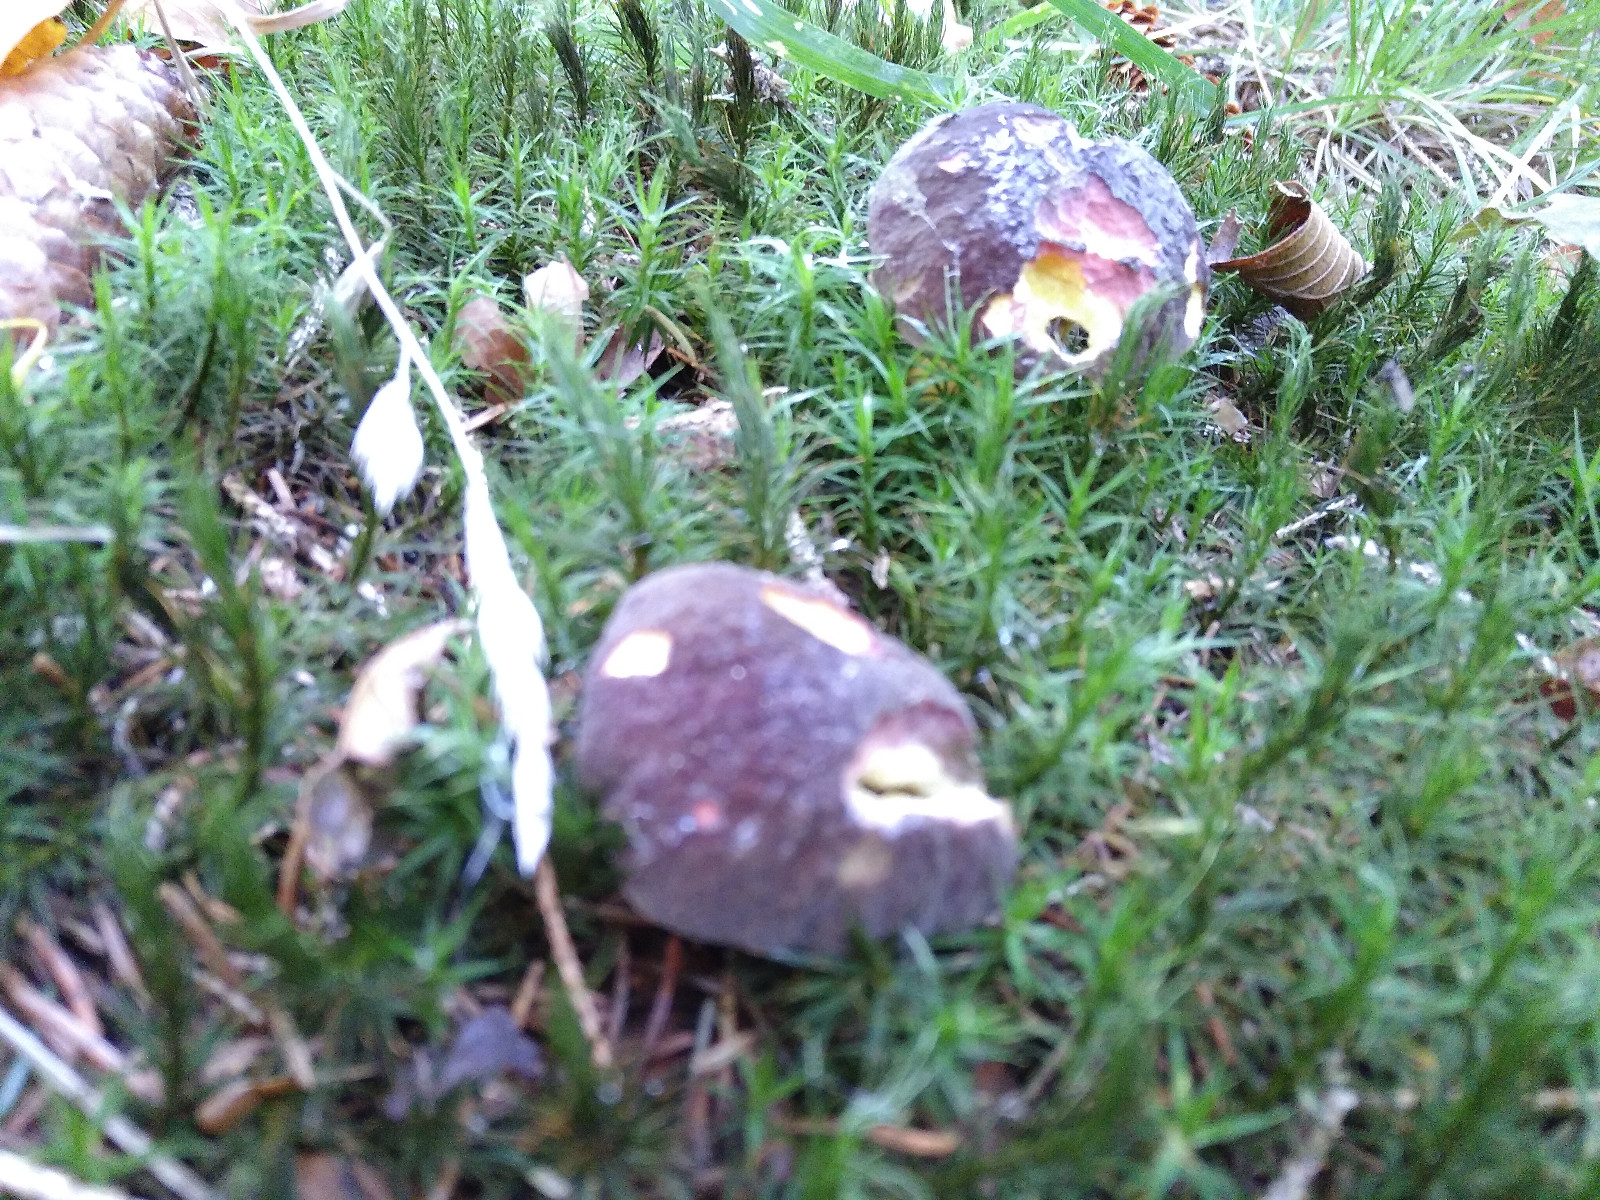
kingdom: Fungi
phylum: Basidiomycota
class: Agaricomycetes
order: Boletales
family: Boletaceae
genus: Xerocomellus
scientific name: Xerocomellus pruinatus
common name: dugget rørhat
